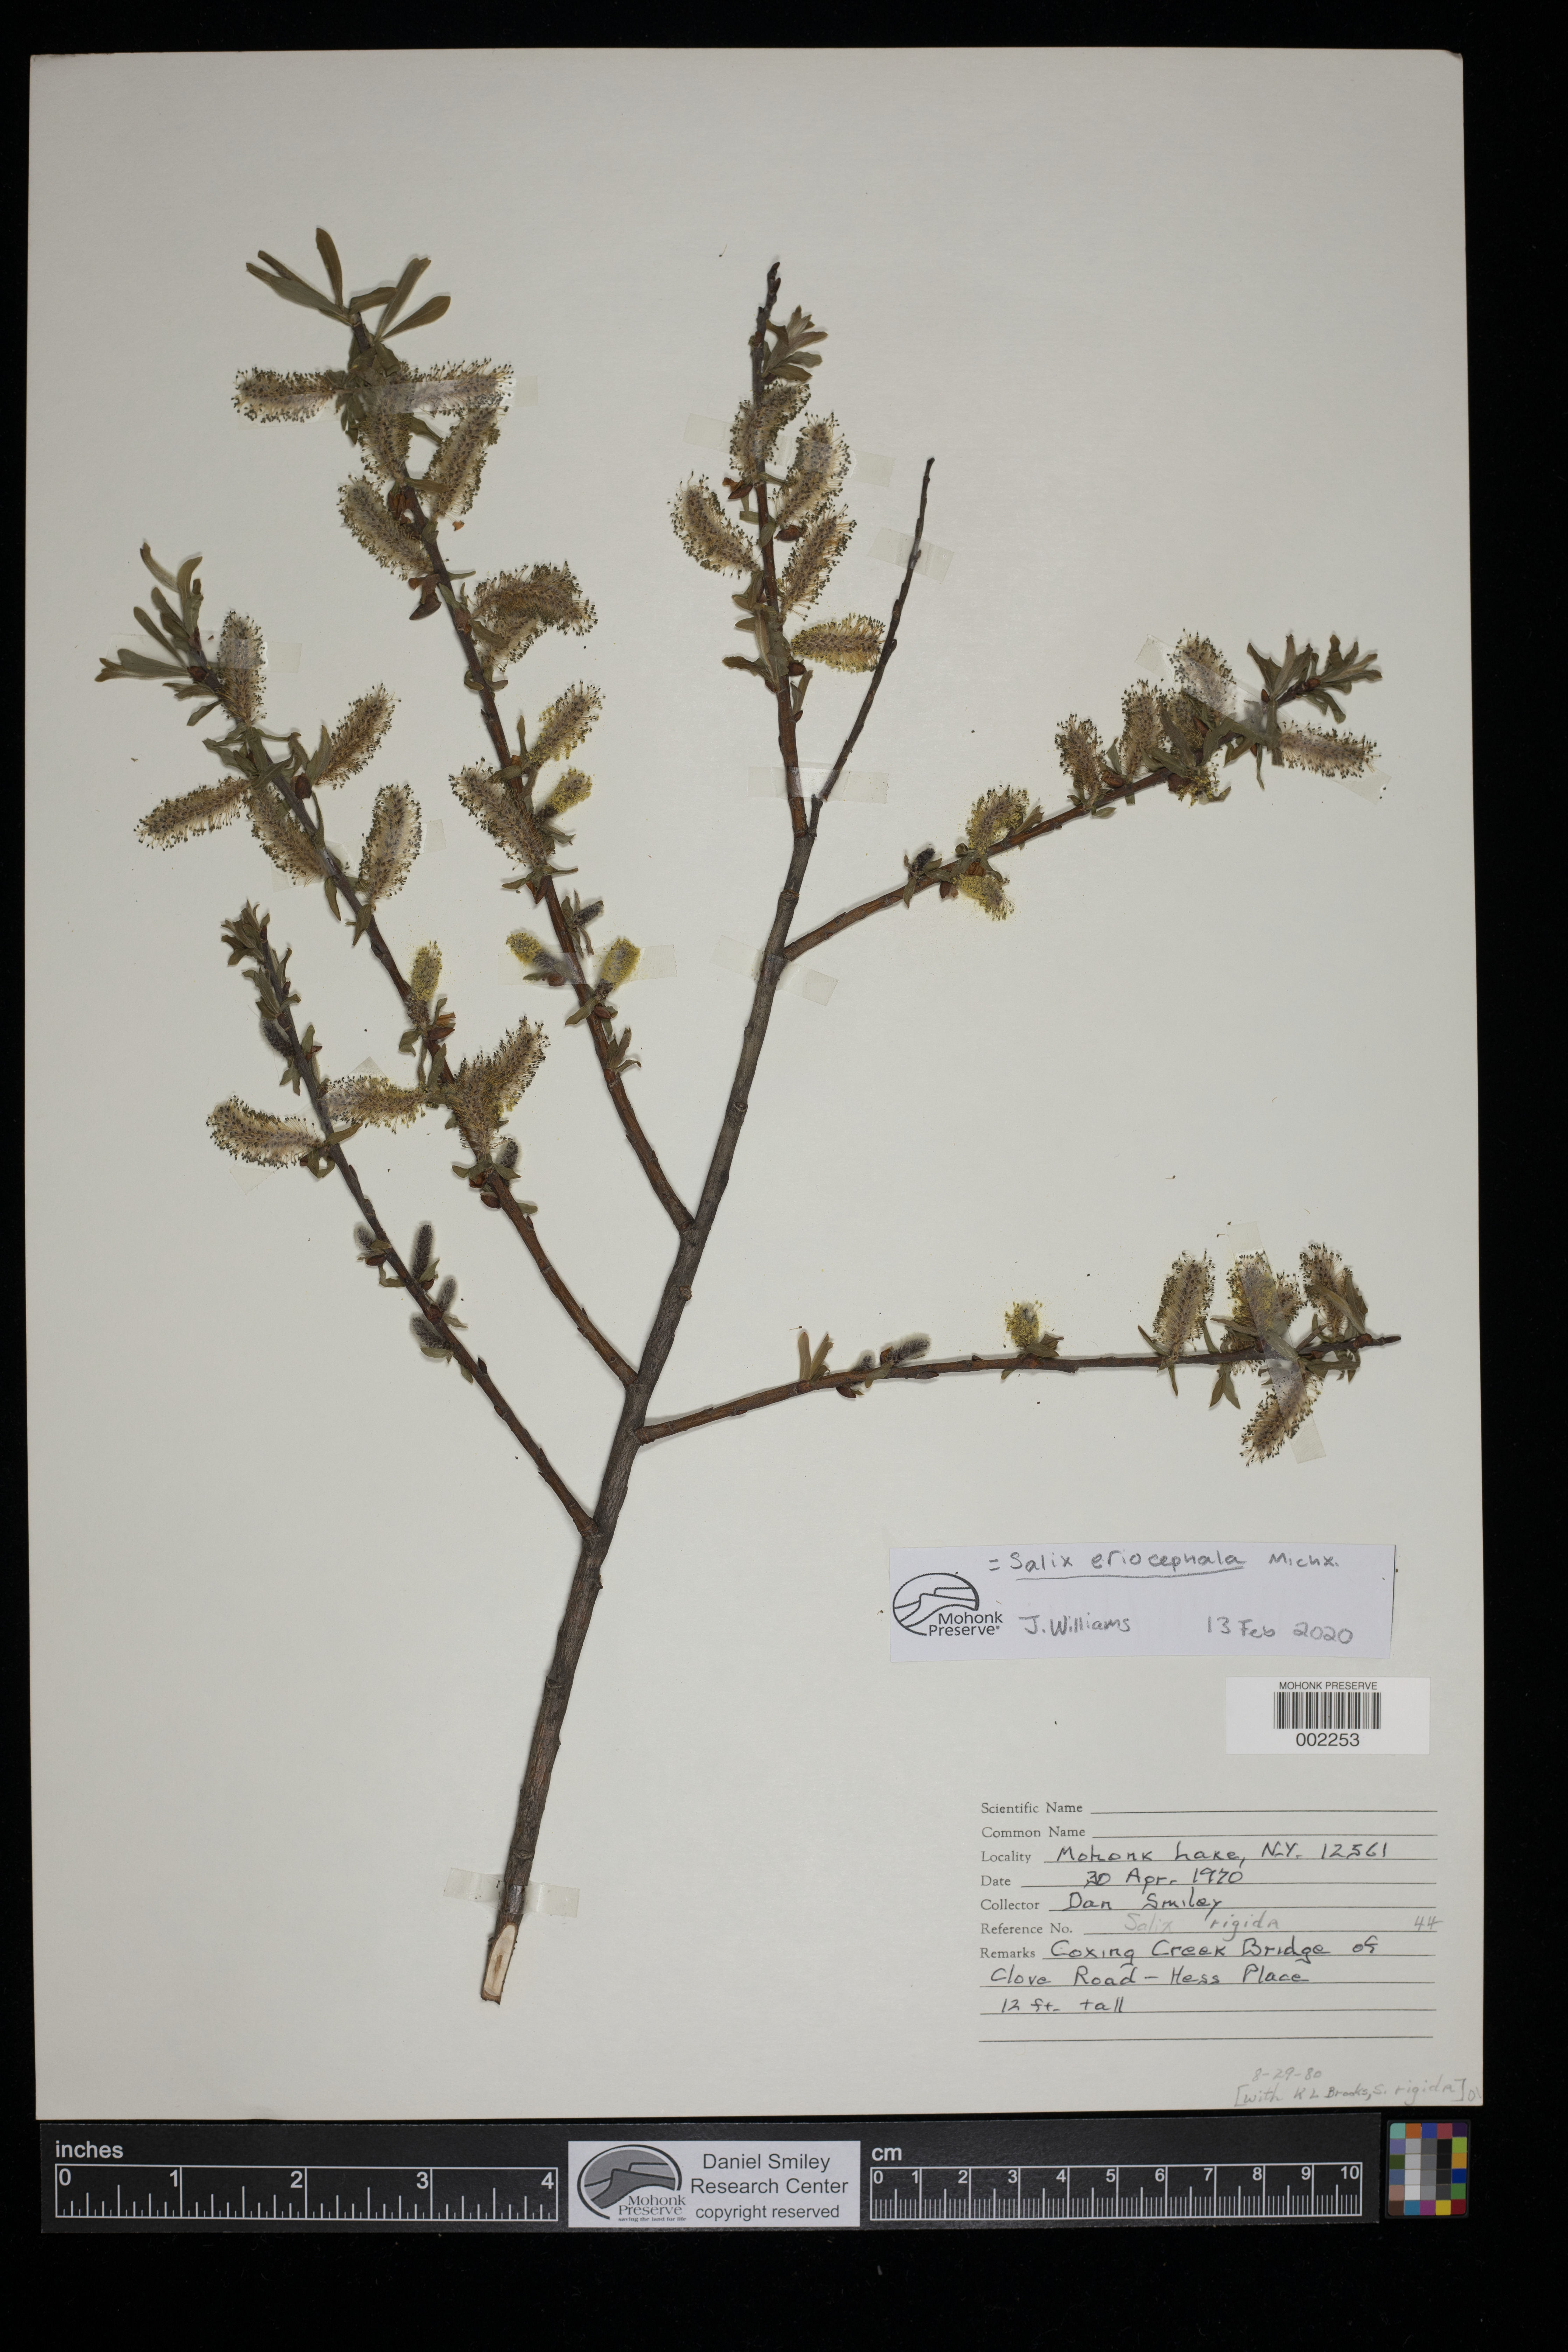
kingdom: Plantae
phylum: Tracheophyta
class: Magnoliopsida
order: Malpighiales
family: Salicaceae
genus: Salix
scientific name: Salix eriocephala
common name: Heart-leaved willow
